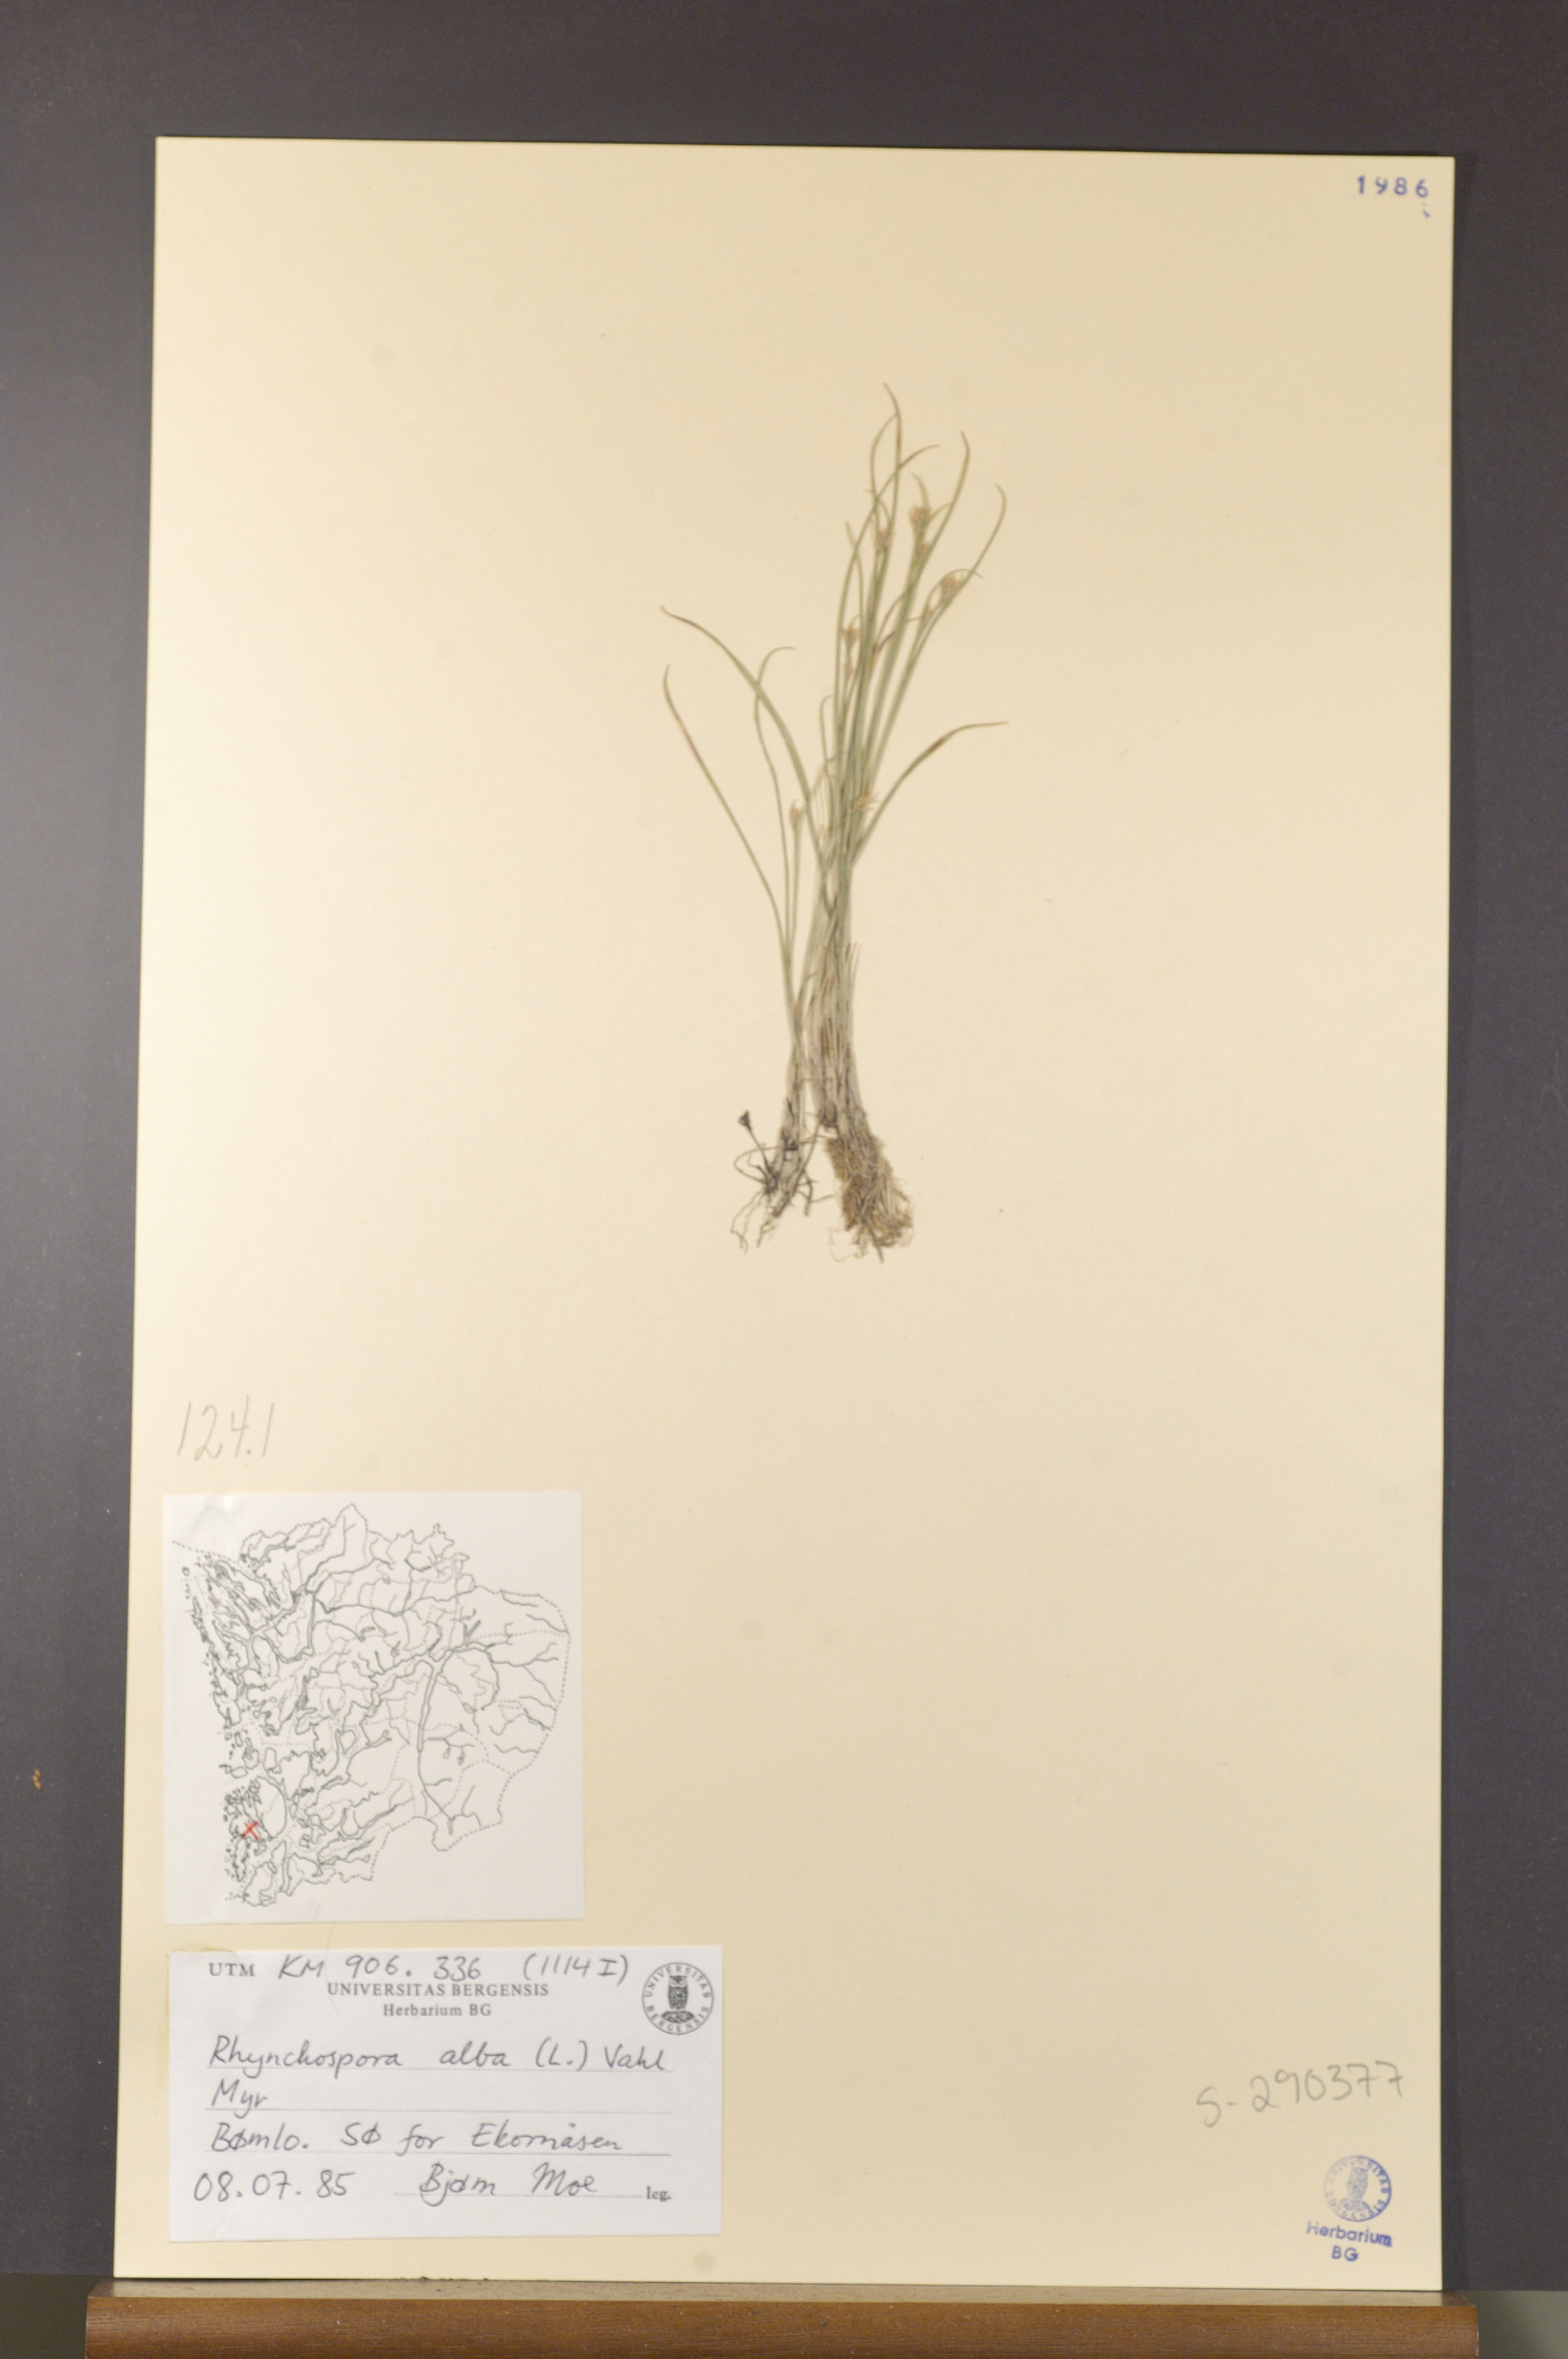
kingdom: Plantae
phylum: Tracheophyta
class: Liliopsida
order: Poales
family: Cyperaceae
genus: Rhynchospora
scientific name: Rhynchospora alba
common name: White beak-sedge
